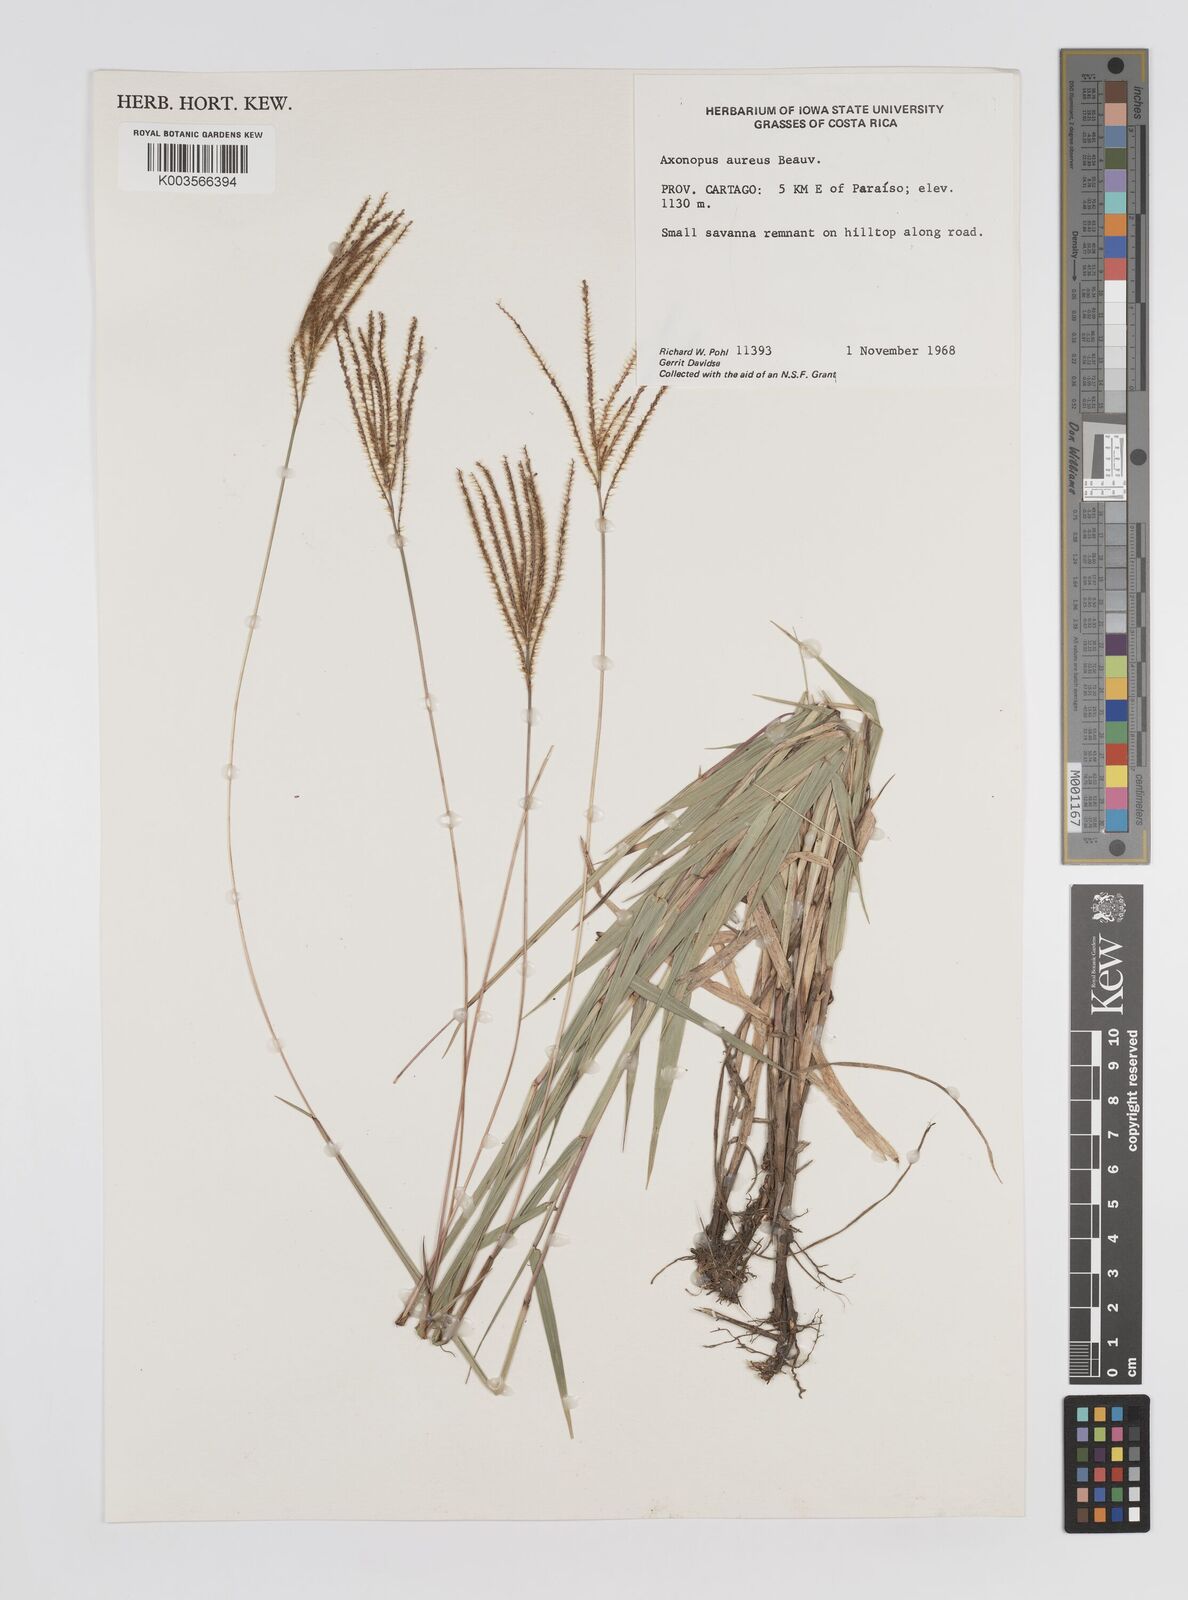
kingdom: Plantae
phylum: Tracheophyta
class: Liliopsida
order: Poales
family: Poaceae
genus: Axonopus
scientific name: Axonopus aureus
